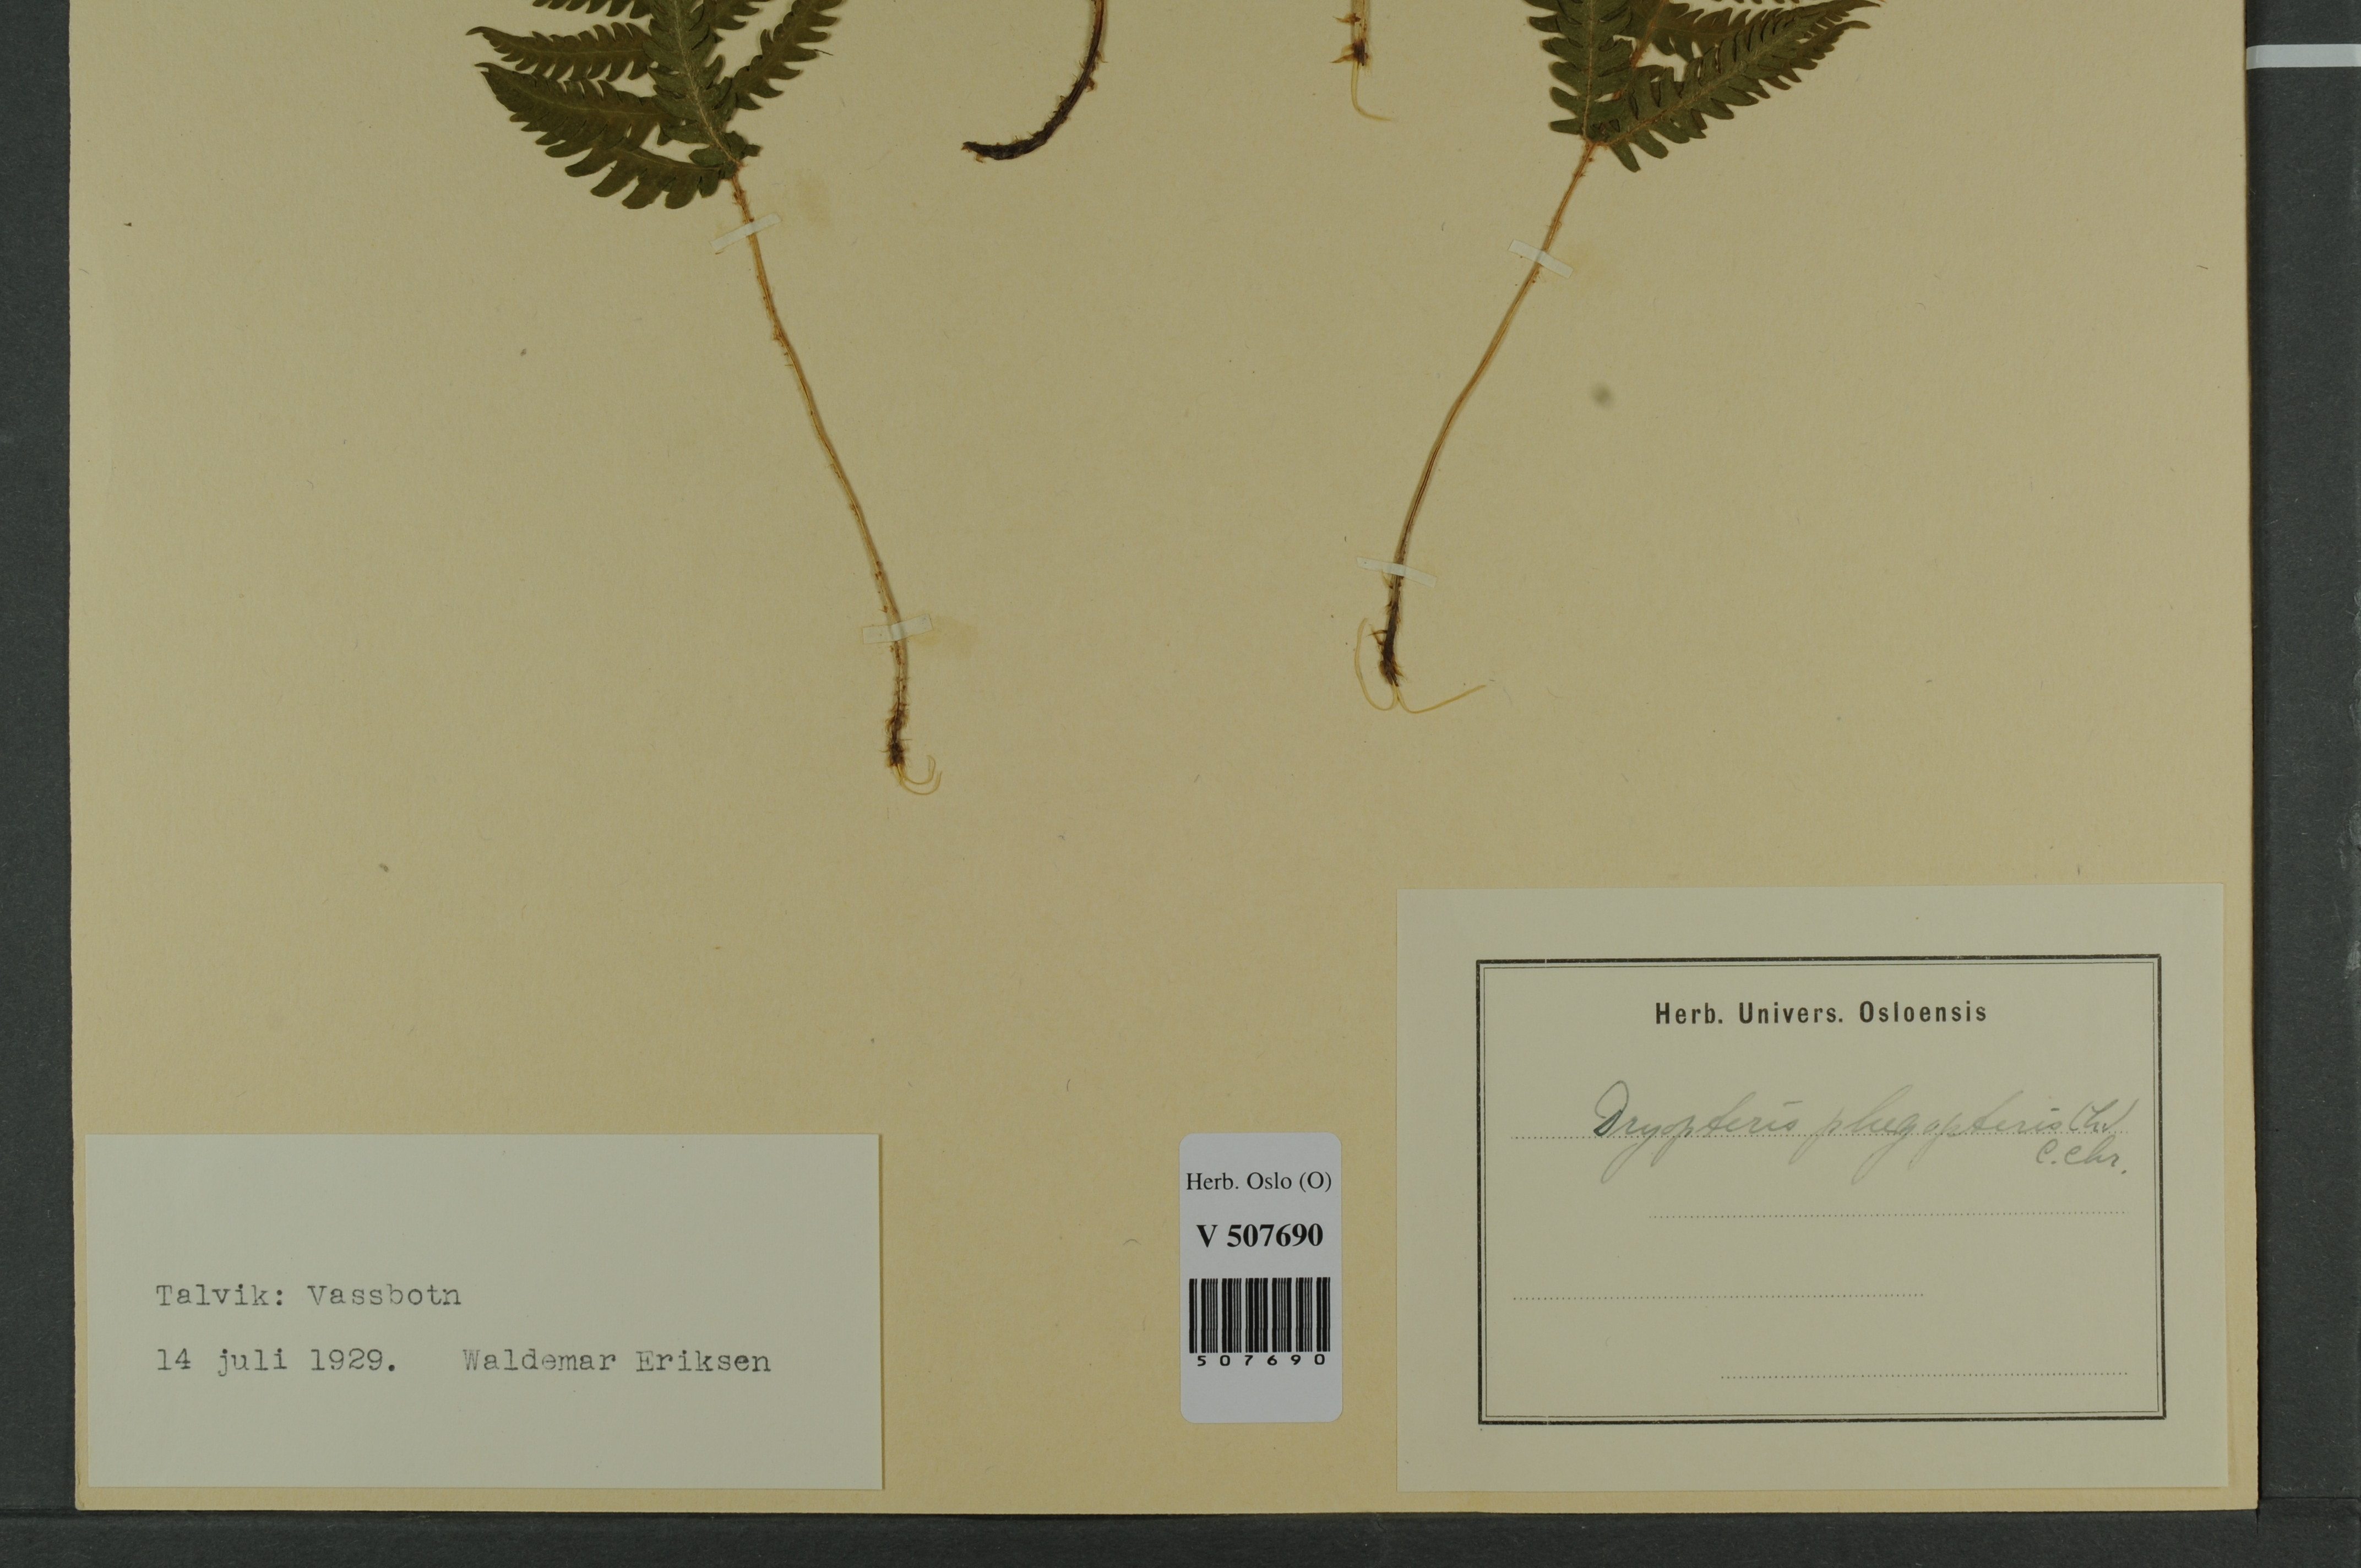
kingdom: Plantae
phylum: Tracheophyta
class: Polypodiopsida
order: Polypodiales
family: Thelypteridaceae
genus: Phegopteris
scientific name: Phegopteris connectilis
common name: Beech fern
